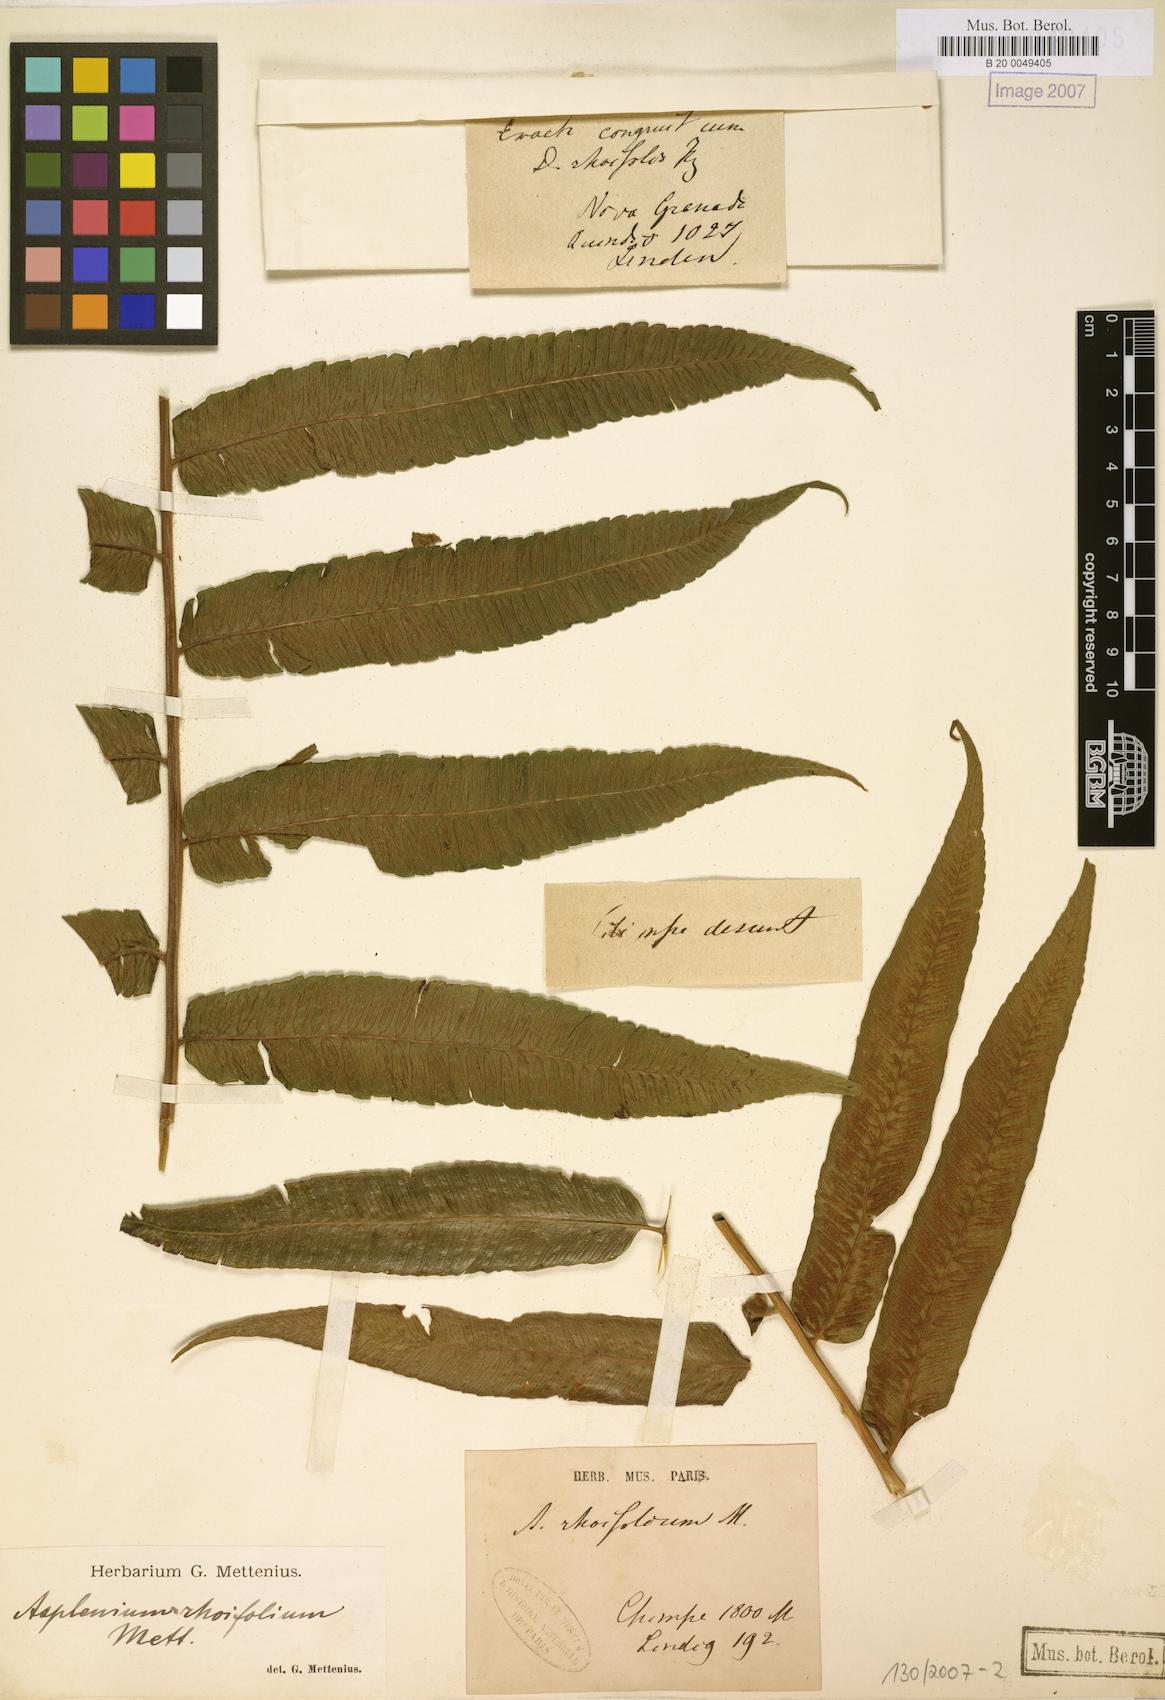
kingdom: Plantae
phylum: Tracheophyta
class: Polypodiopsida
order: Polypodiales
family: Athyriaceae
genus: Diplazium
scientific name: Diplazium rhoifolium
